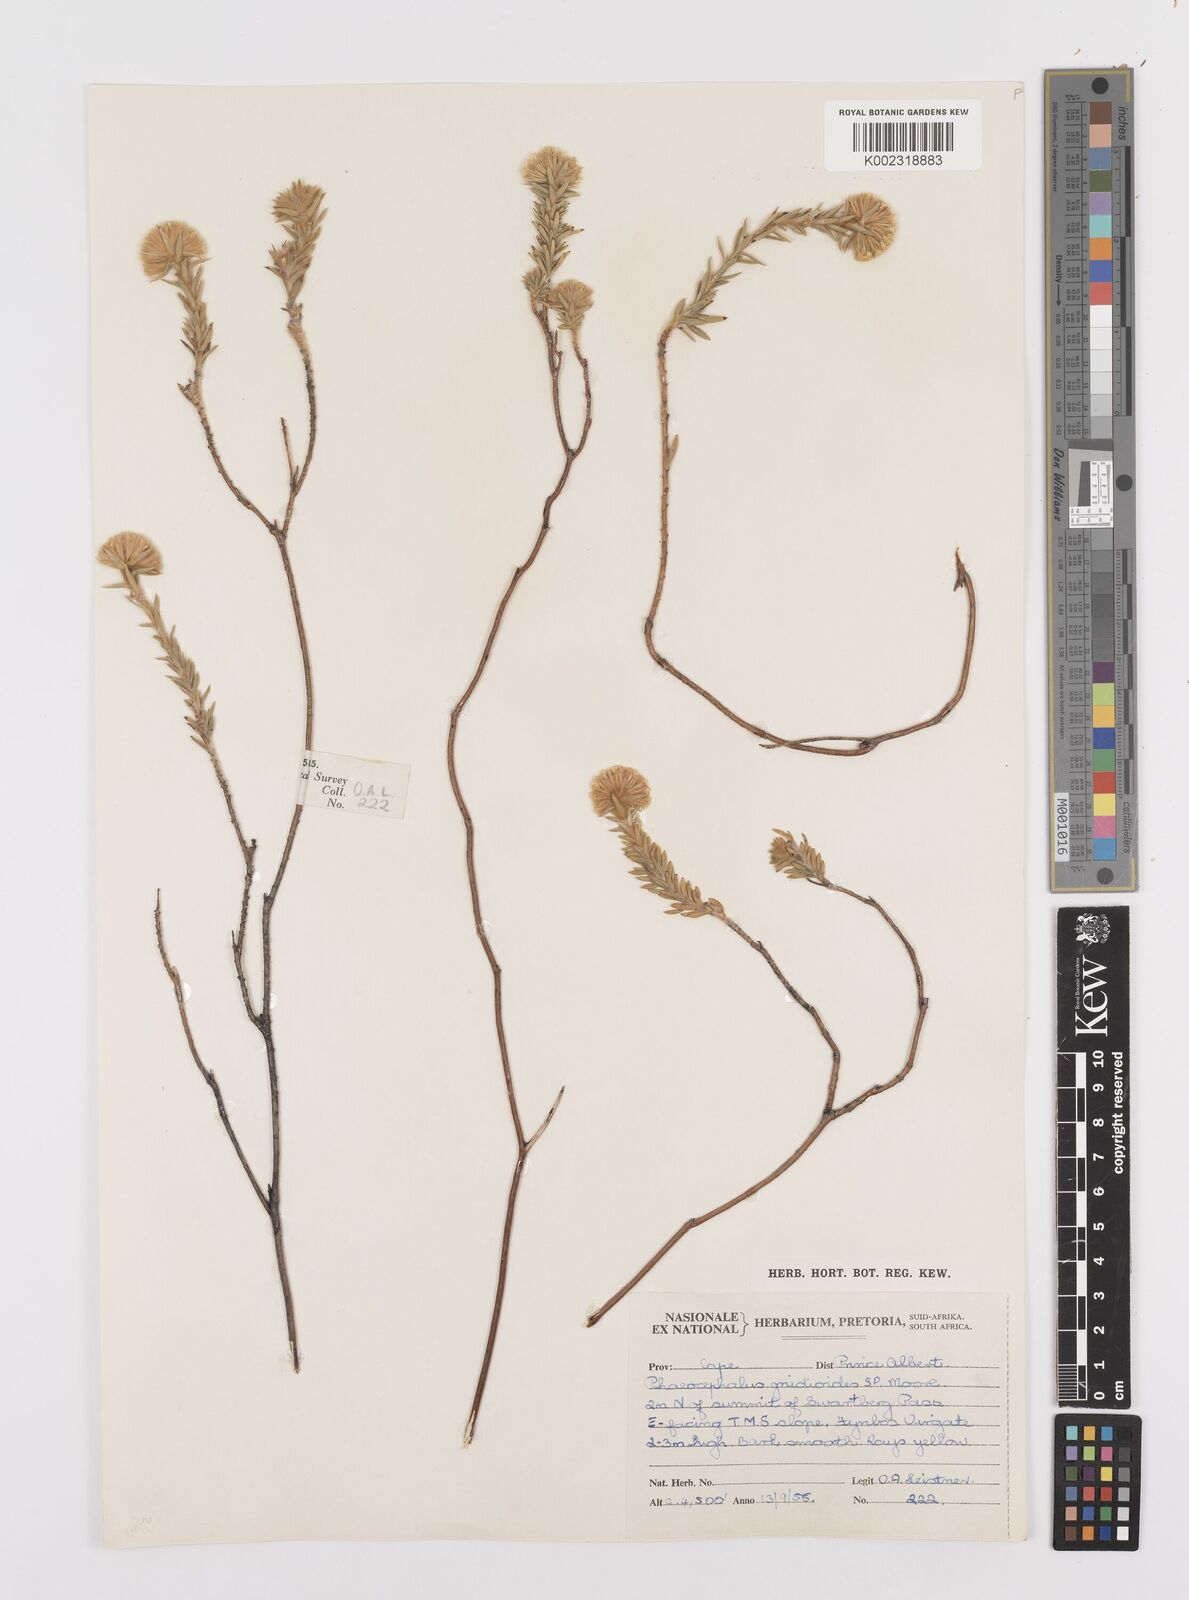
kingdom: Plantae
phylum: Tracheophyta
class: Magnoliopsida
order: Asterales
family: Asteraceae
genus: Hymenolepis
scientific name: Hymenolepis gnidioides
